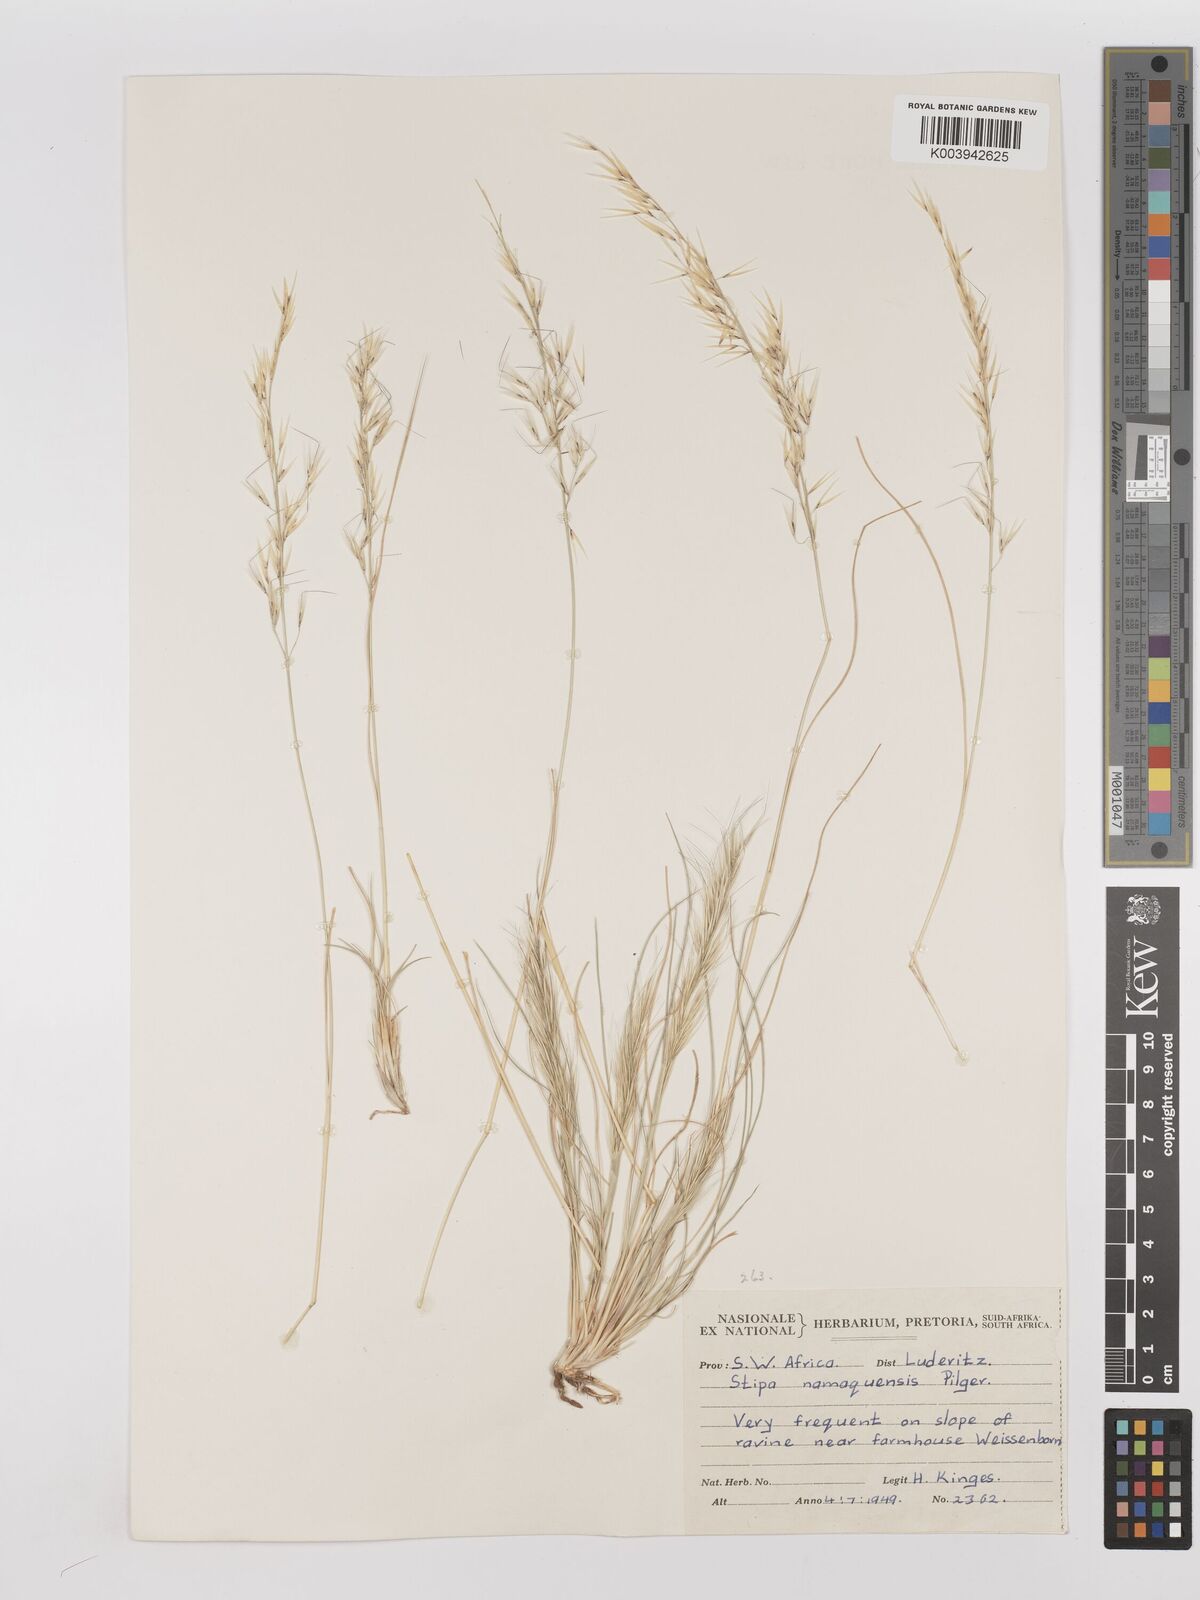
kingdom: Plantae
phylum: Tracheophyta
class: Liliopsida
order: Poales
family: Poaceae
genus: Stipagrostis
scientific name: Stipagrostis anomala
